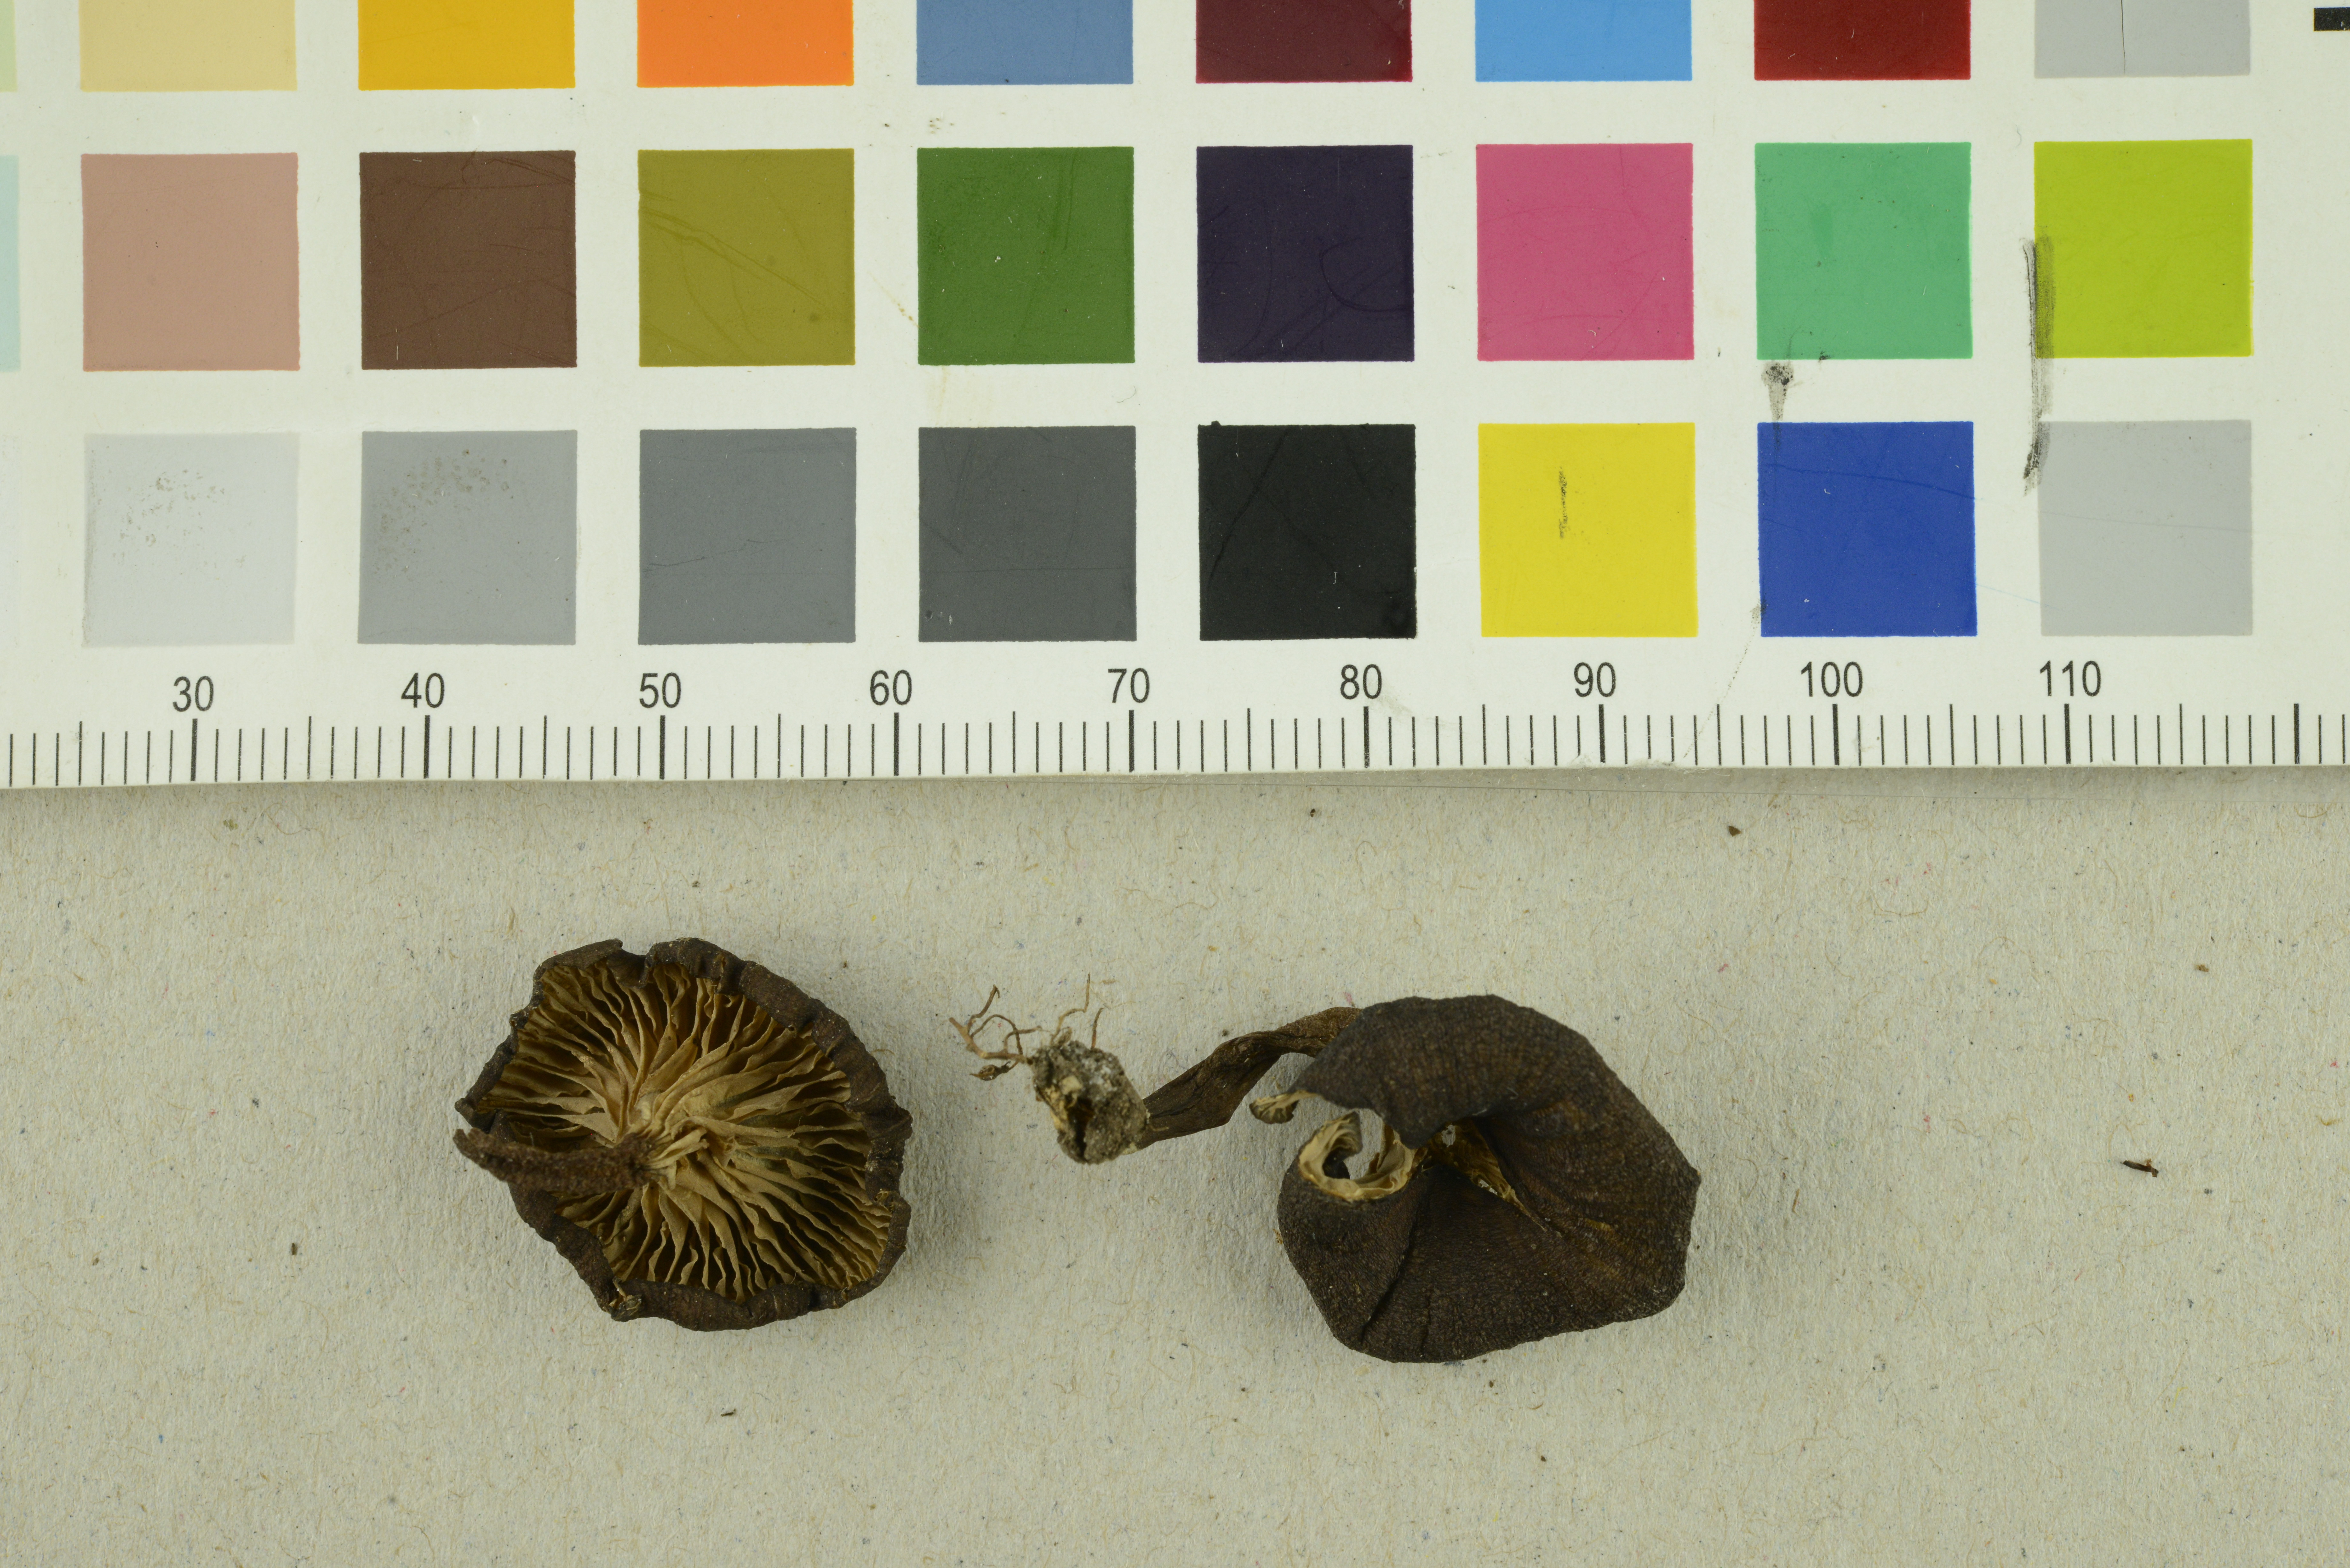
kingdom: Fungi
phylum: Basidiomycota
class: Agaricomycetes
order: Agaricales
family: Entolomataceae
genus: Entoloma
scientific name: Entoloma caccabus
